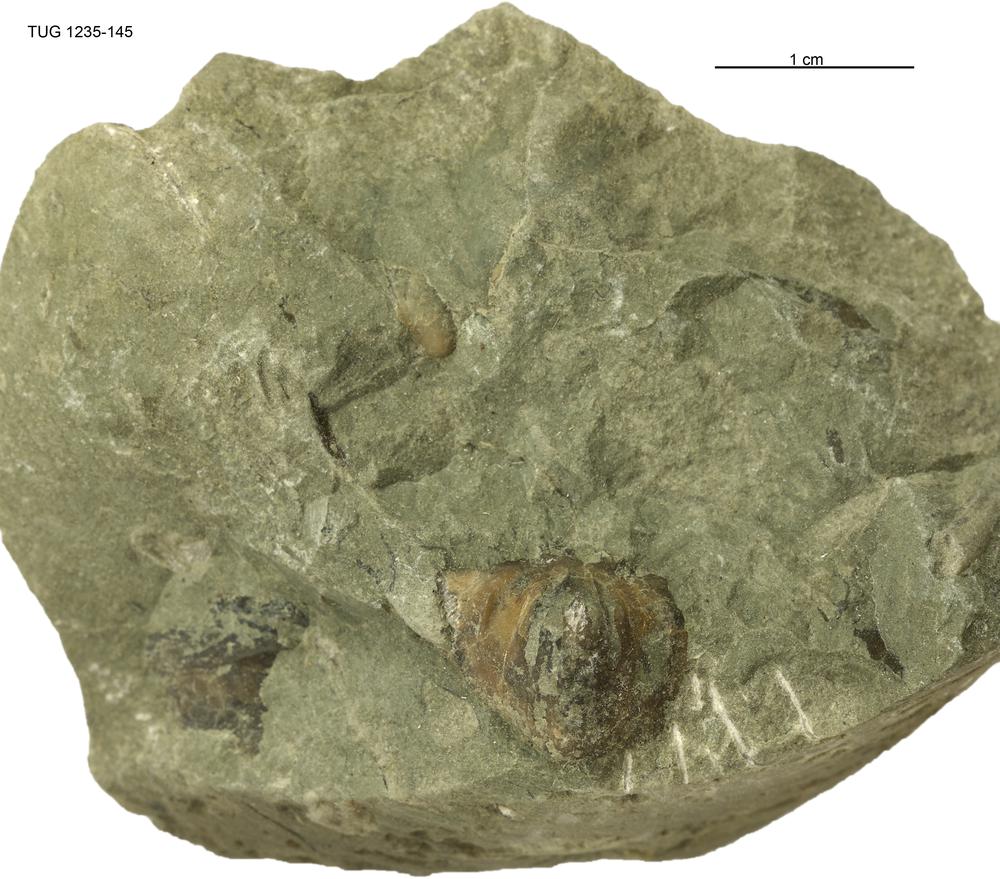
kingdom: Animalia
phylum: Brachiopoda
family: Oldhaminidae
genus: Eoplectodonta
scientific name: Eoplectodonta
